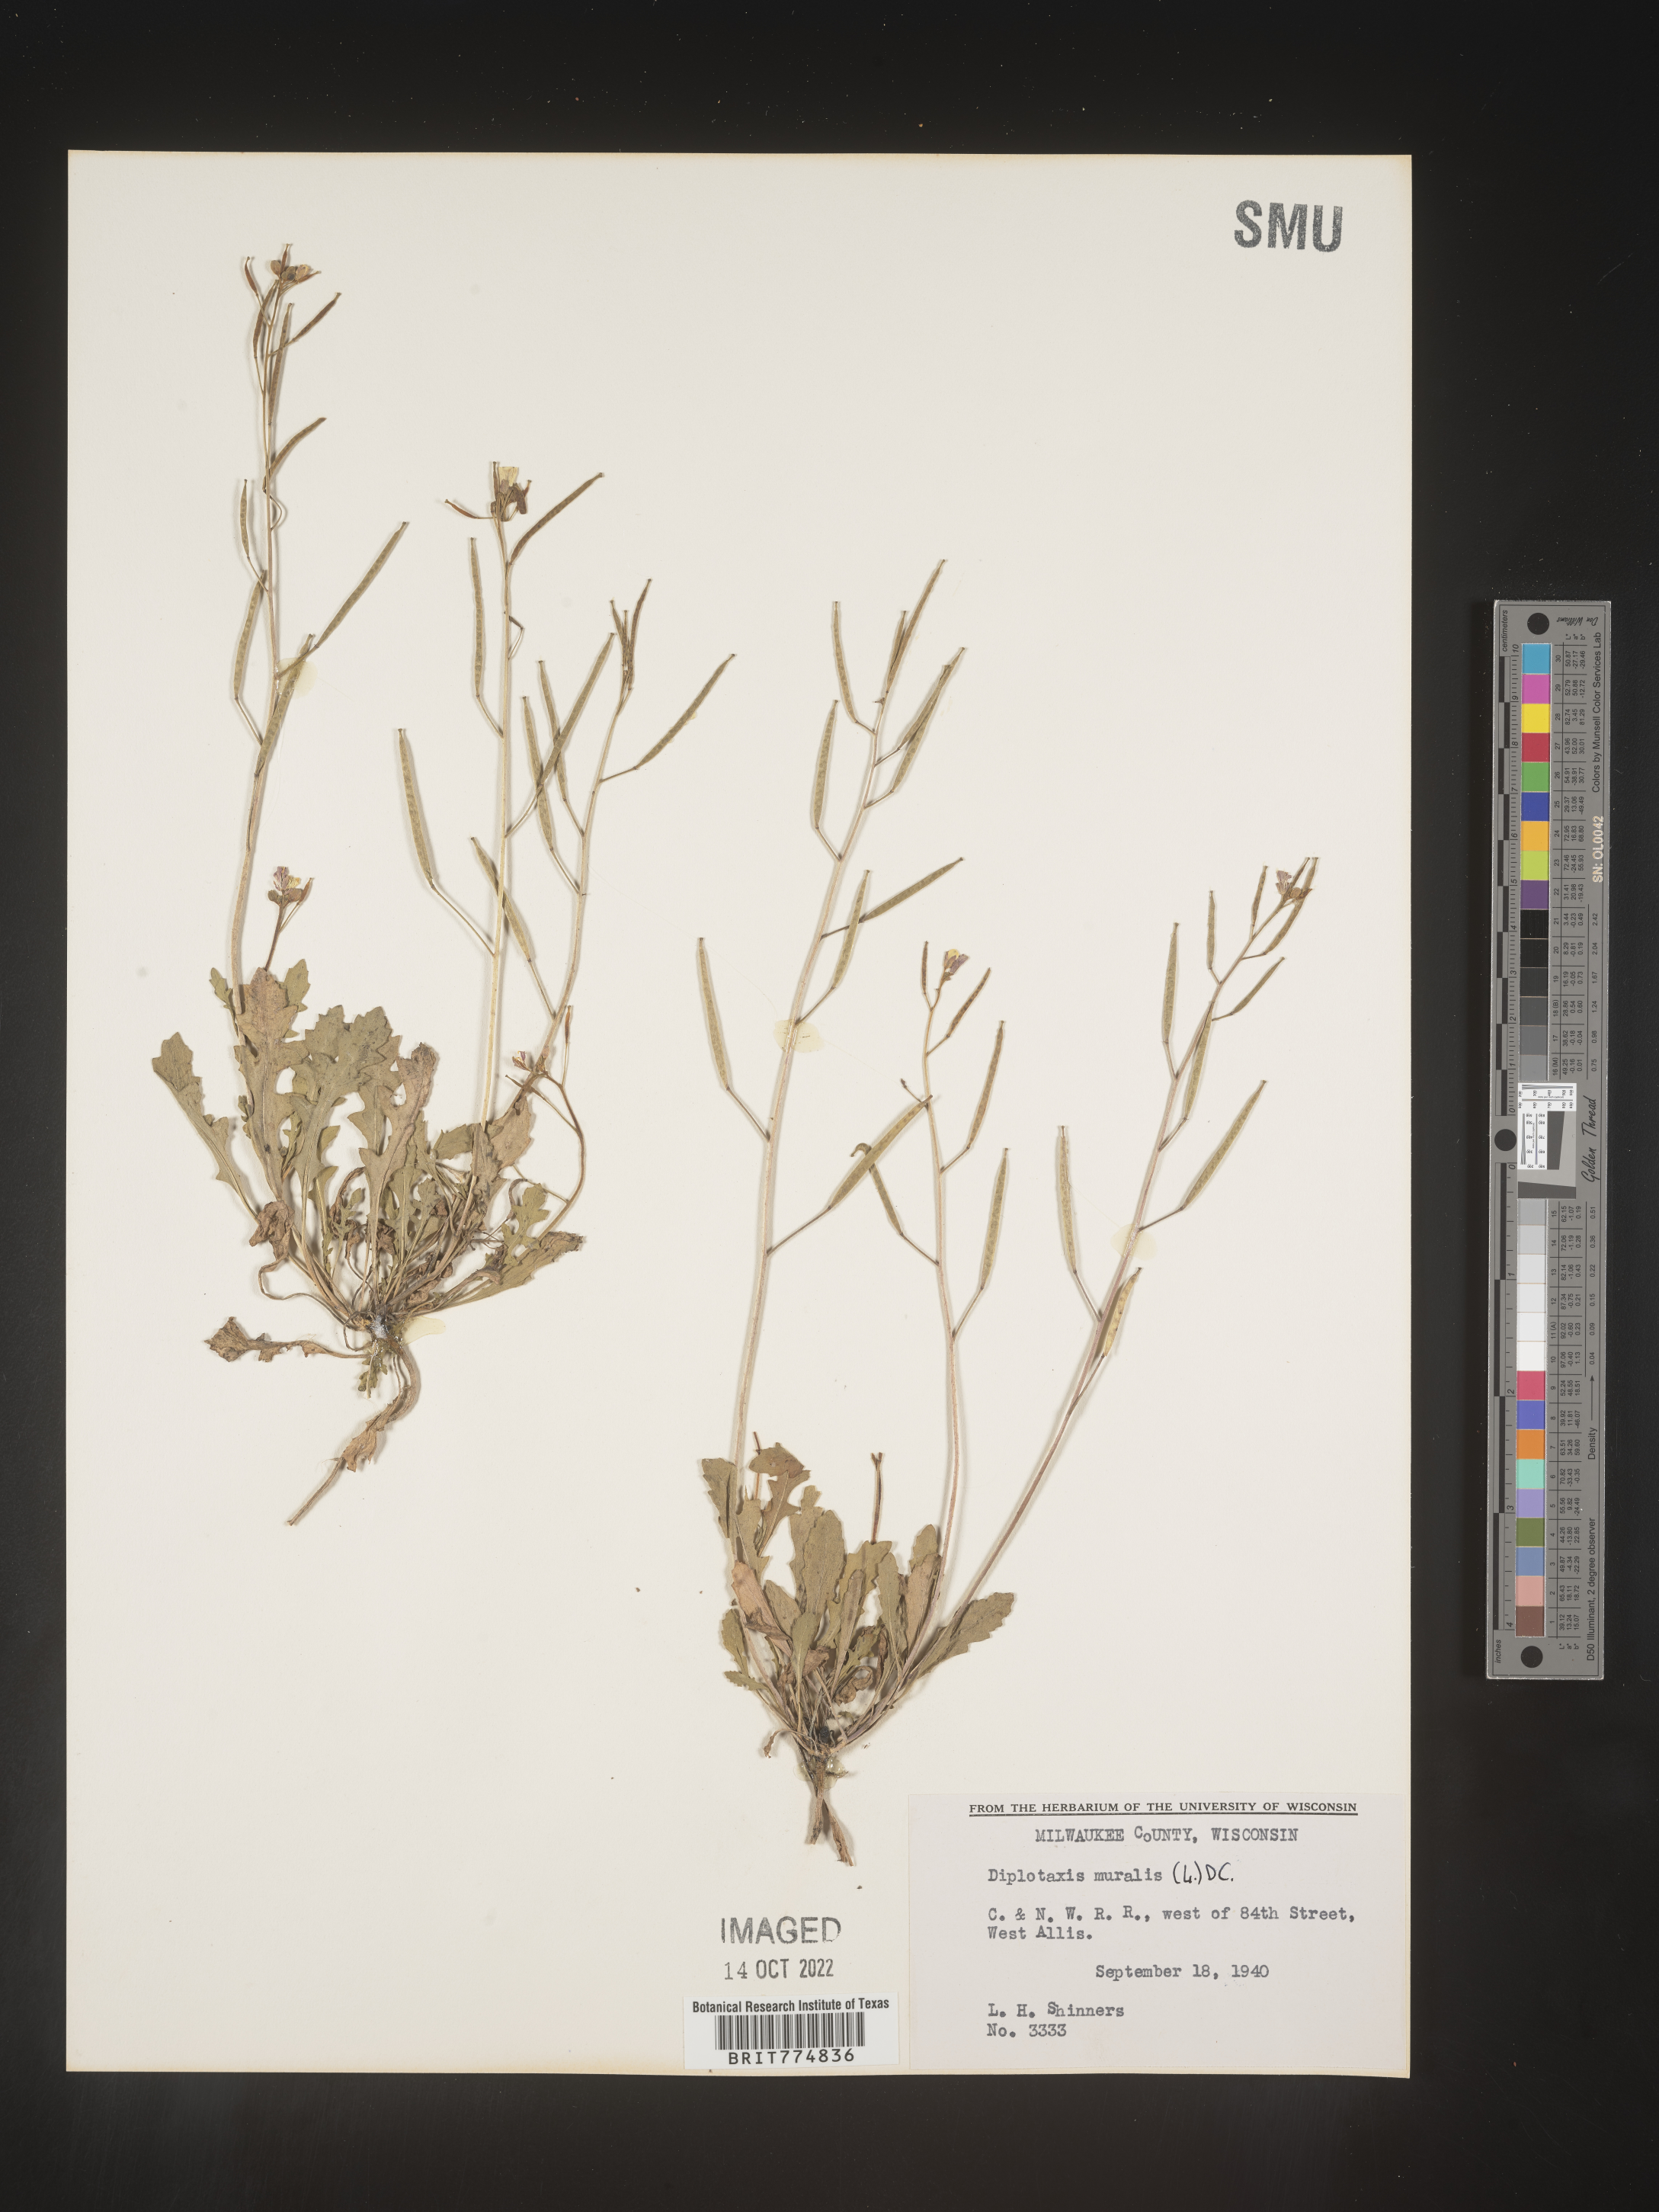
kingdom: Plantae
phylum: Tracheophyta
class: Magnoliopsida
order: Brassicales
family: Brassicaceae
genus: Diplotaxis
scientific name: Diplotaxis
